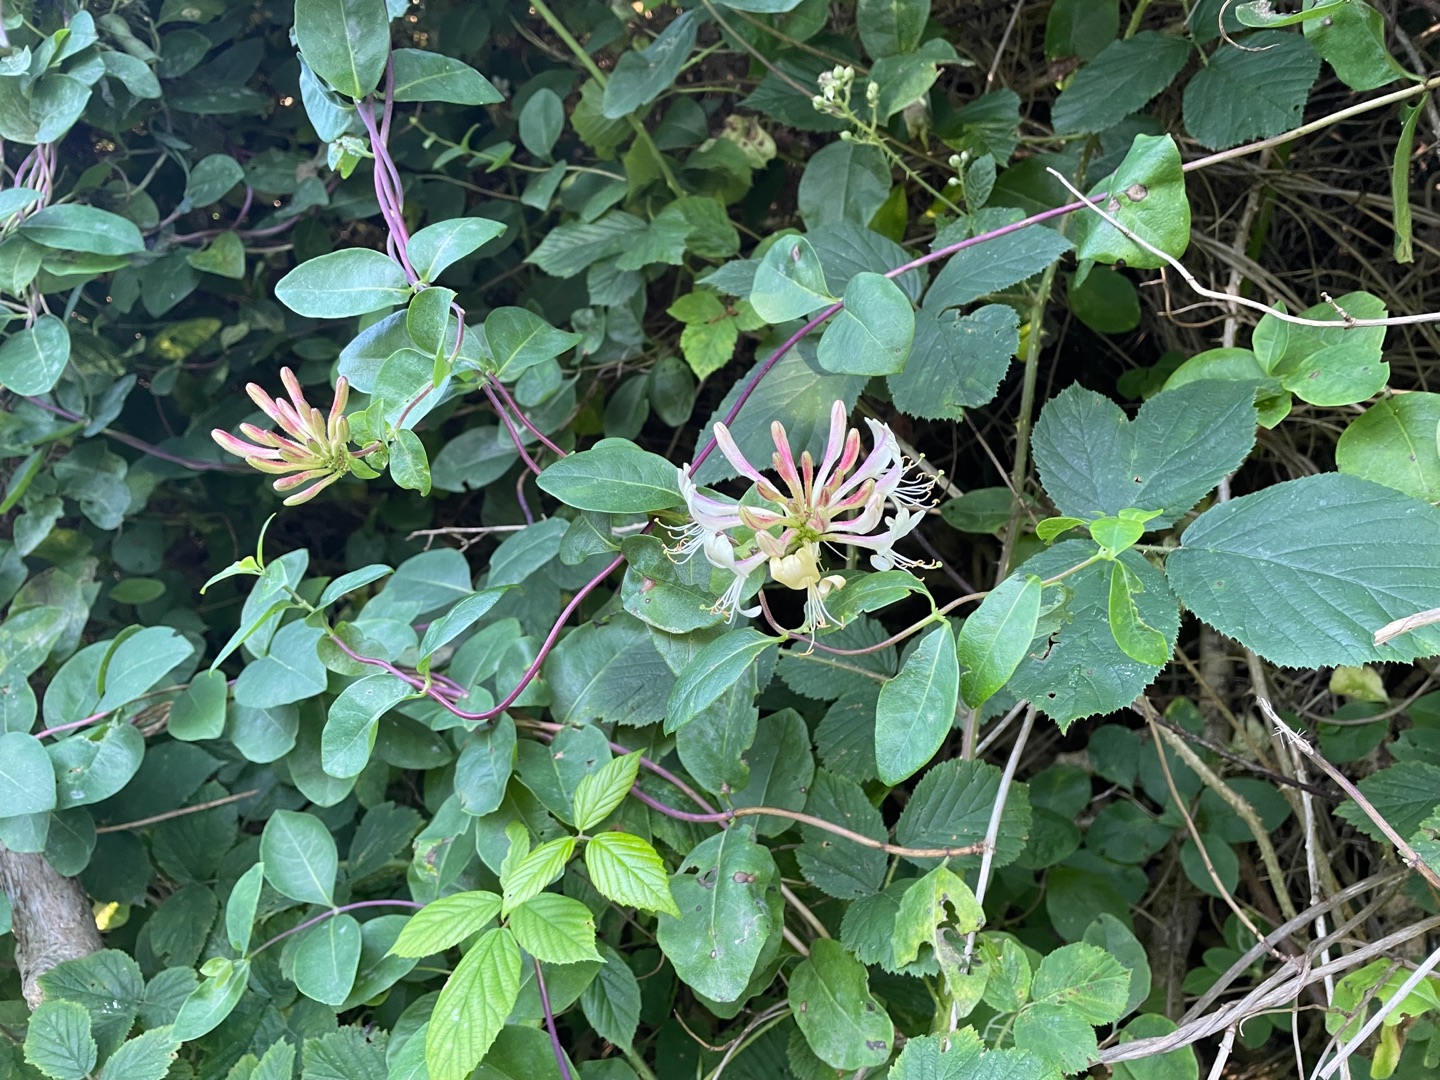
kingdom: Plantae
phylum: Tracheophyta
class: Magnoliopsida
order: Dipsacales
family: Caprifoliaceae
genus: Lonicera
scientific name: Lonicera periclymenum
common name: Almindelig gedeblad
